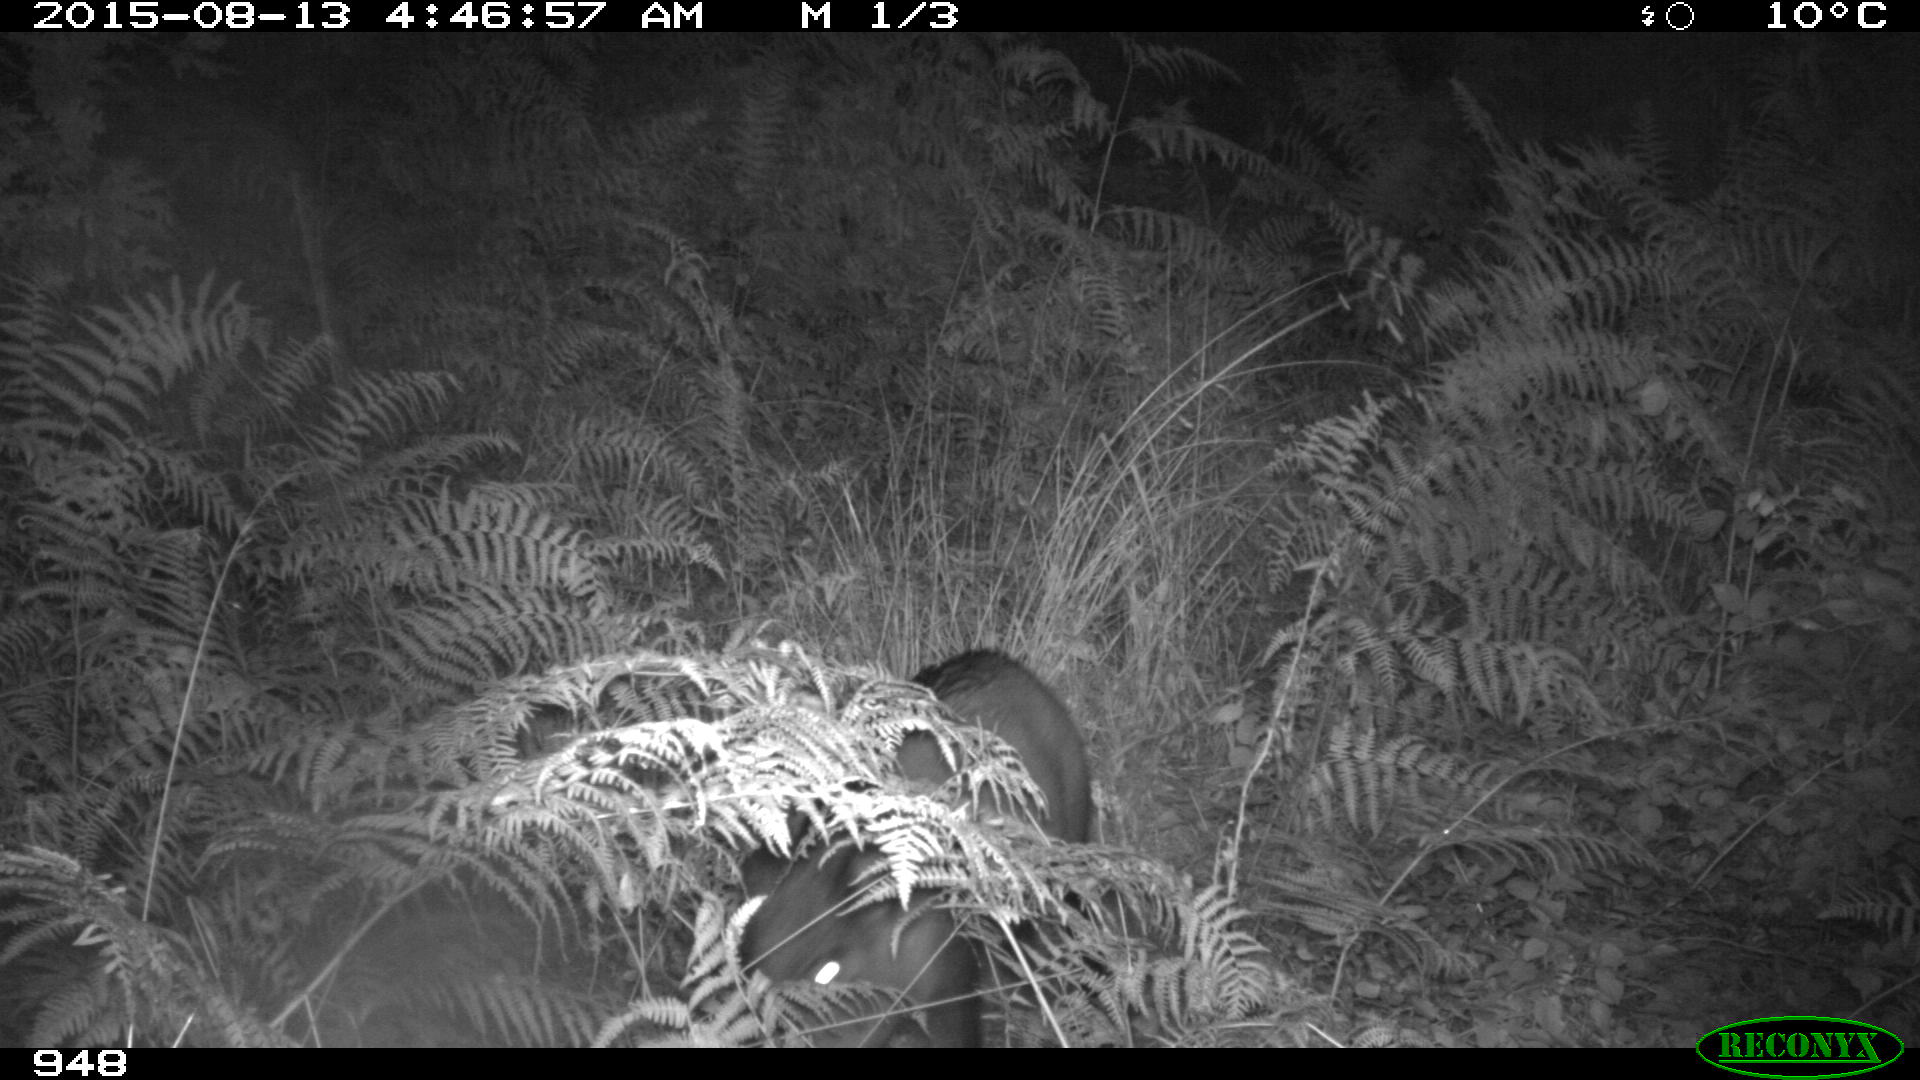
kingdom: Animalia
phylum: Chordata
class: Mammalia
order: Artiodactyla
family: Suidae
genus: Sus
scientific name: Sus scrofa
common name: Wild boar
